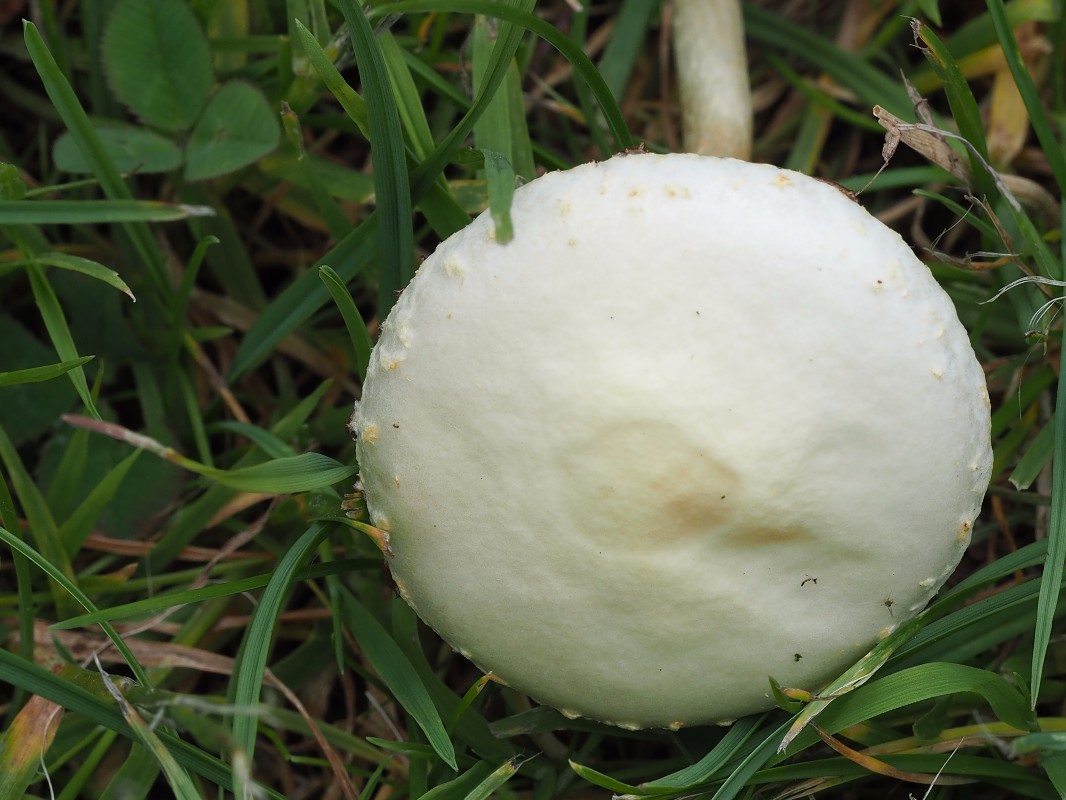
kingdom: Fungi
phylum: Basidiomycota
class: Agaricomycetes
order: Agaricales
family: Strophariaceae
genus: Agrocybe
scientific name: Agrocybe
